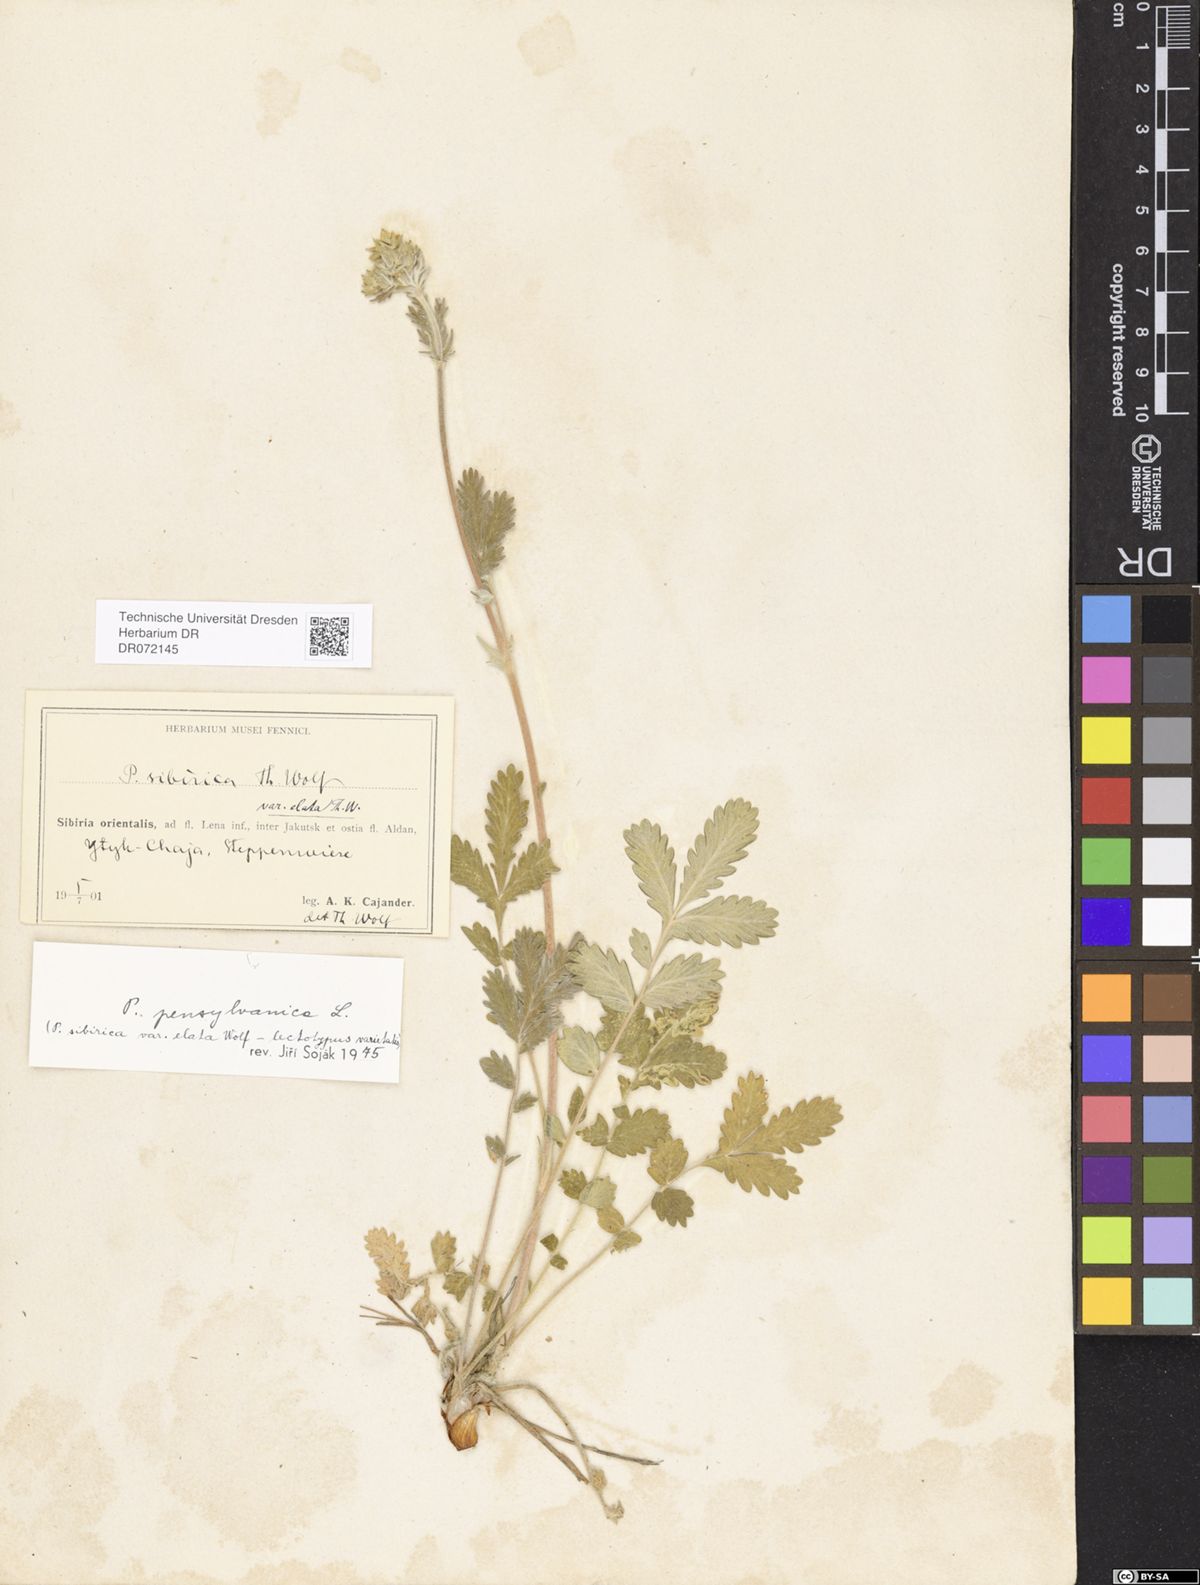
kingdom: Plantae
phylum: Tracheophyta
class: Magnoliopsida
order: Rosales
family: Rosaceae
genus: Potentilla
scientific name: Potentilla pensylvanica
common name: Pennsylvania cinquefoil
